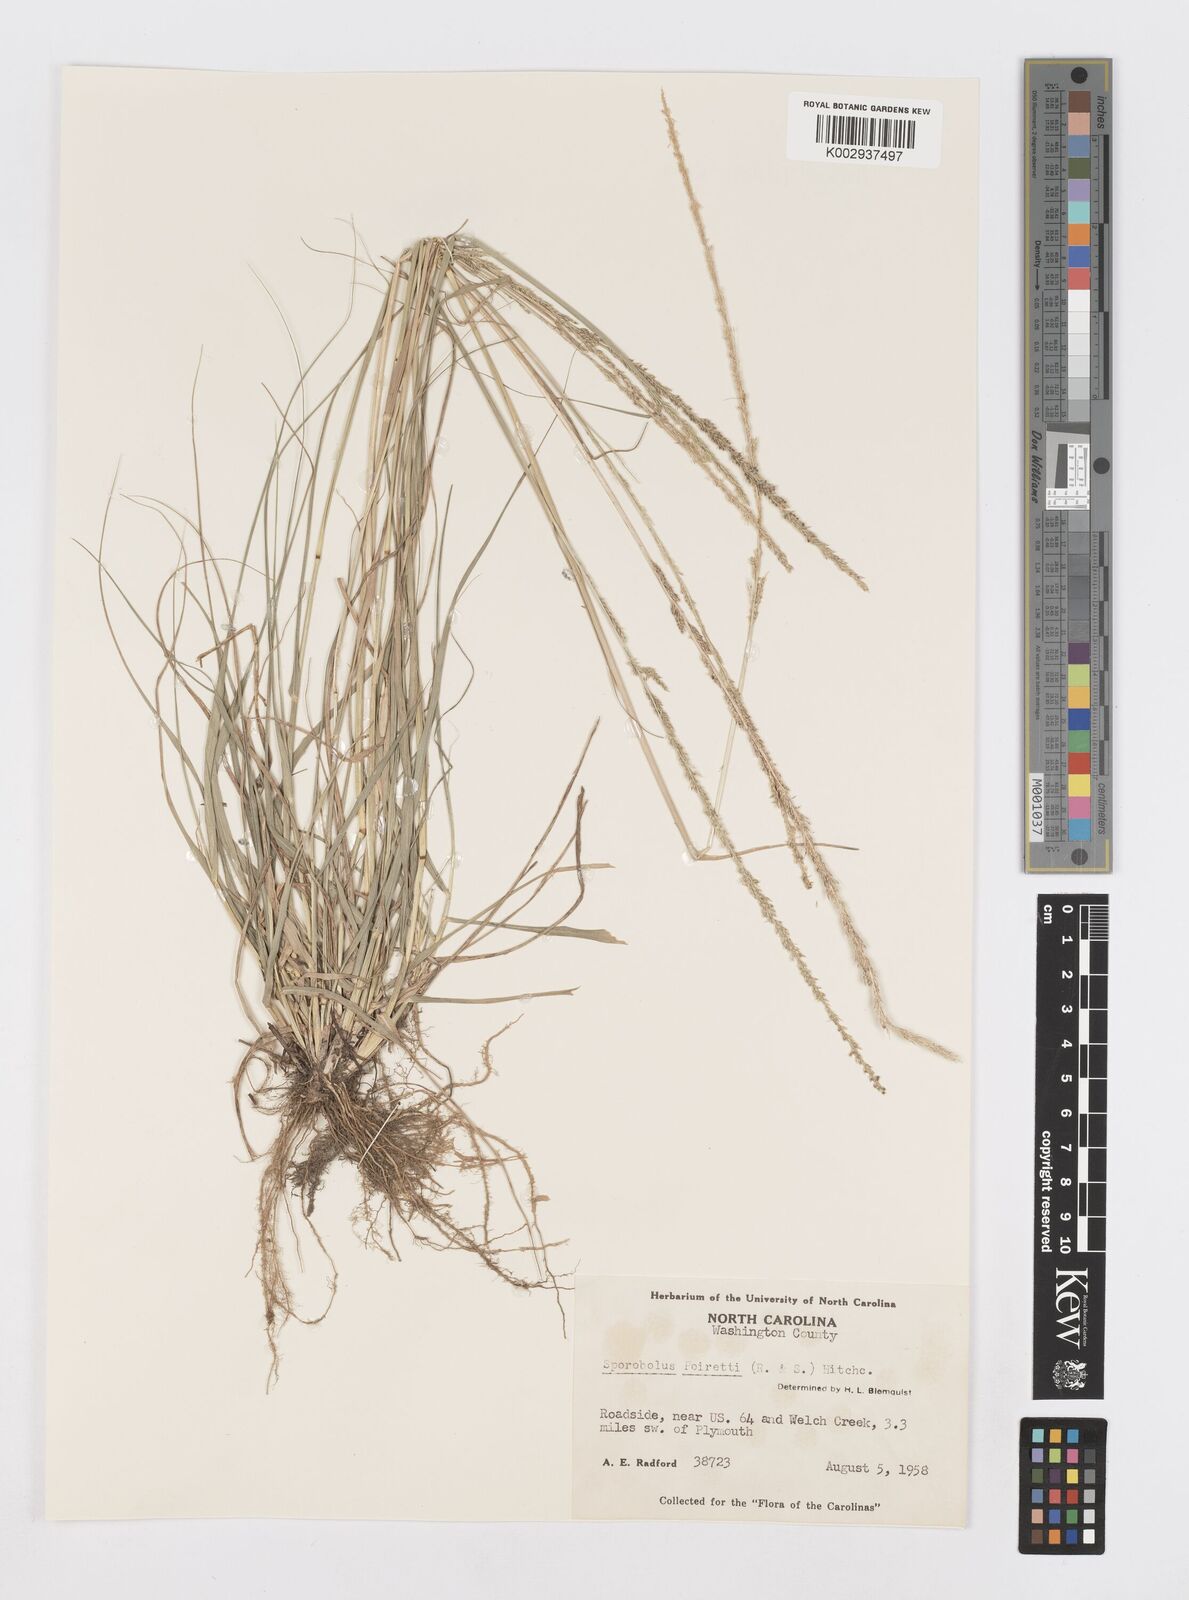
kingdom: Plantae
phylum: Tracheophyta
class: Liliopsida
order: Poales
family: Poaceae
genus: Sporobolus
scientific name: Sporobolus junceus
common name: Lizard grass
